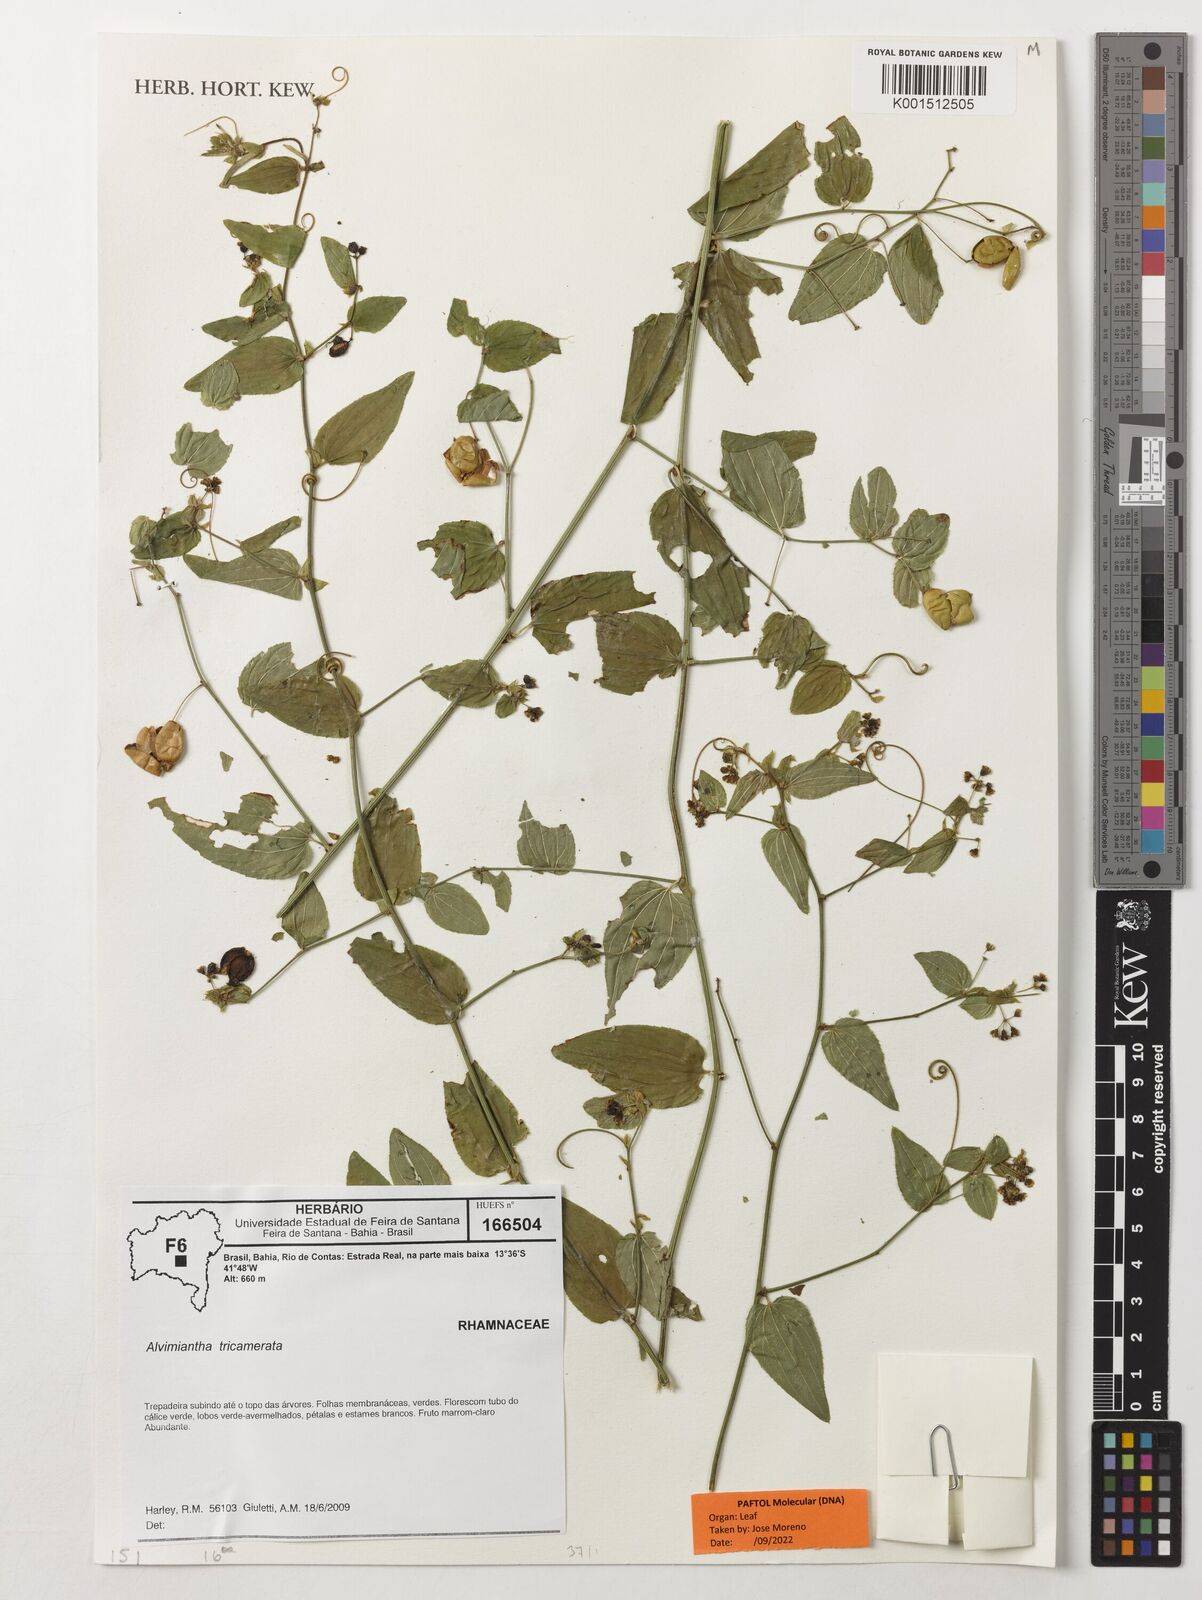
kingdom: Plantae
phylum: Tracheophyta
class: Magnoliopsida
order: Rosales
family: Rhamnaceae
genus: Alvimiantha
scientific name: Alvimiantha tricamerata
